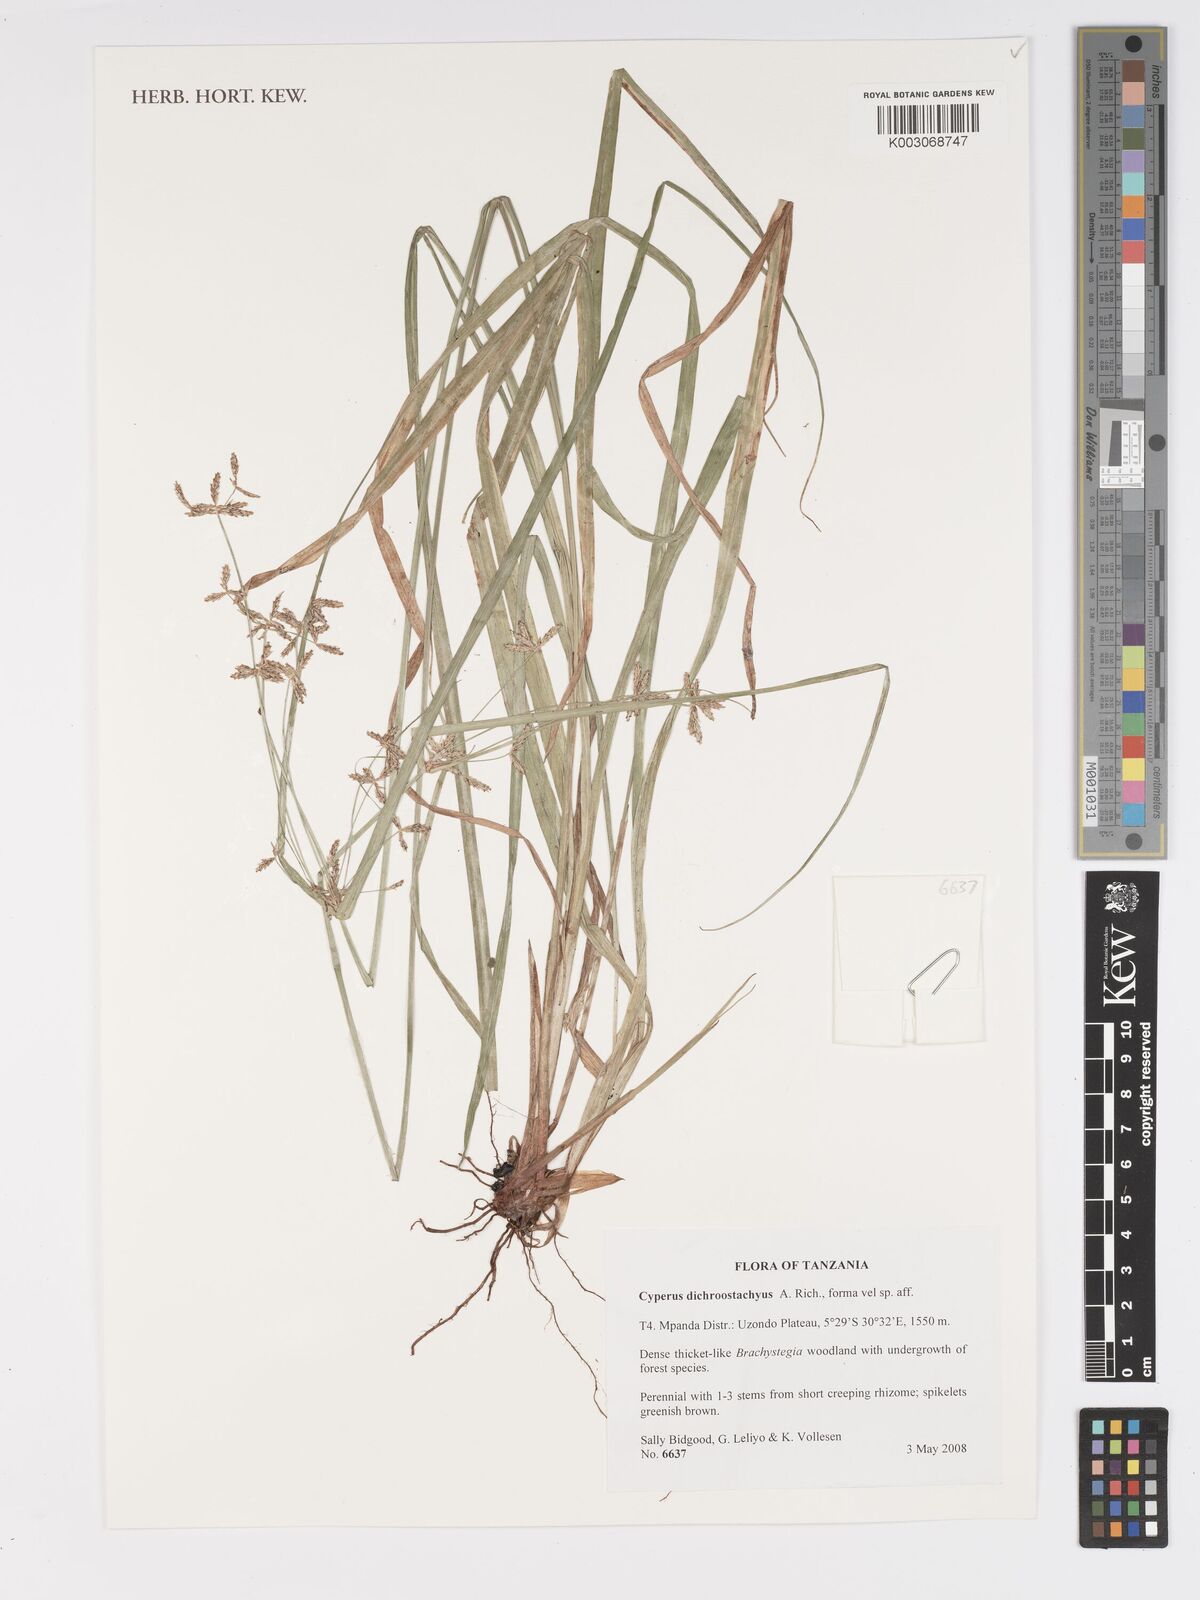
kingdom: Plantae
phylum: Tracheophyta
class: Liliopsida
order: Poales
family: Cyperaceae
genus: Cyperus
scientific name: Cyperus dichrostachyus
